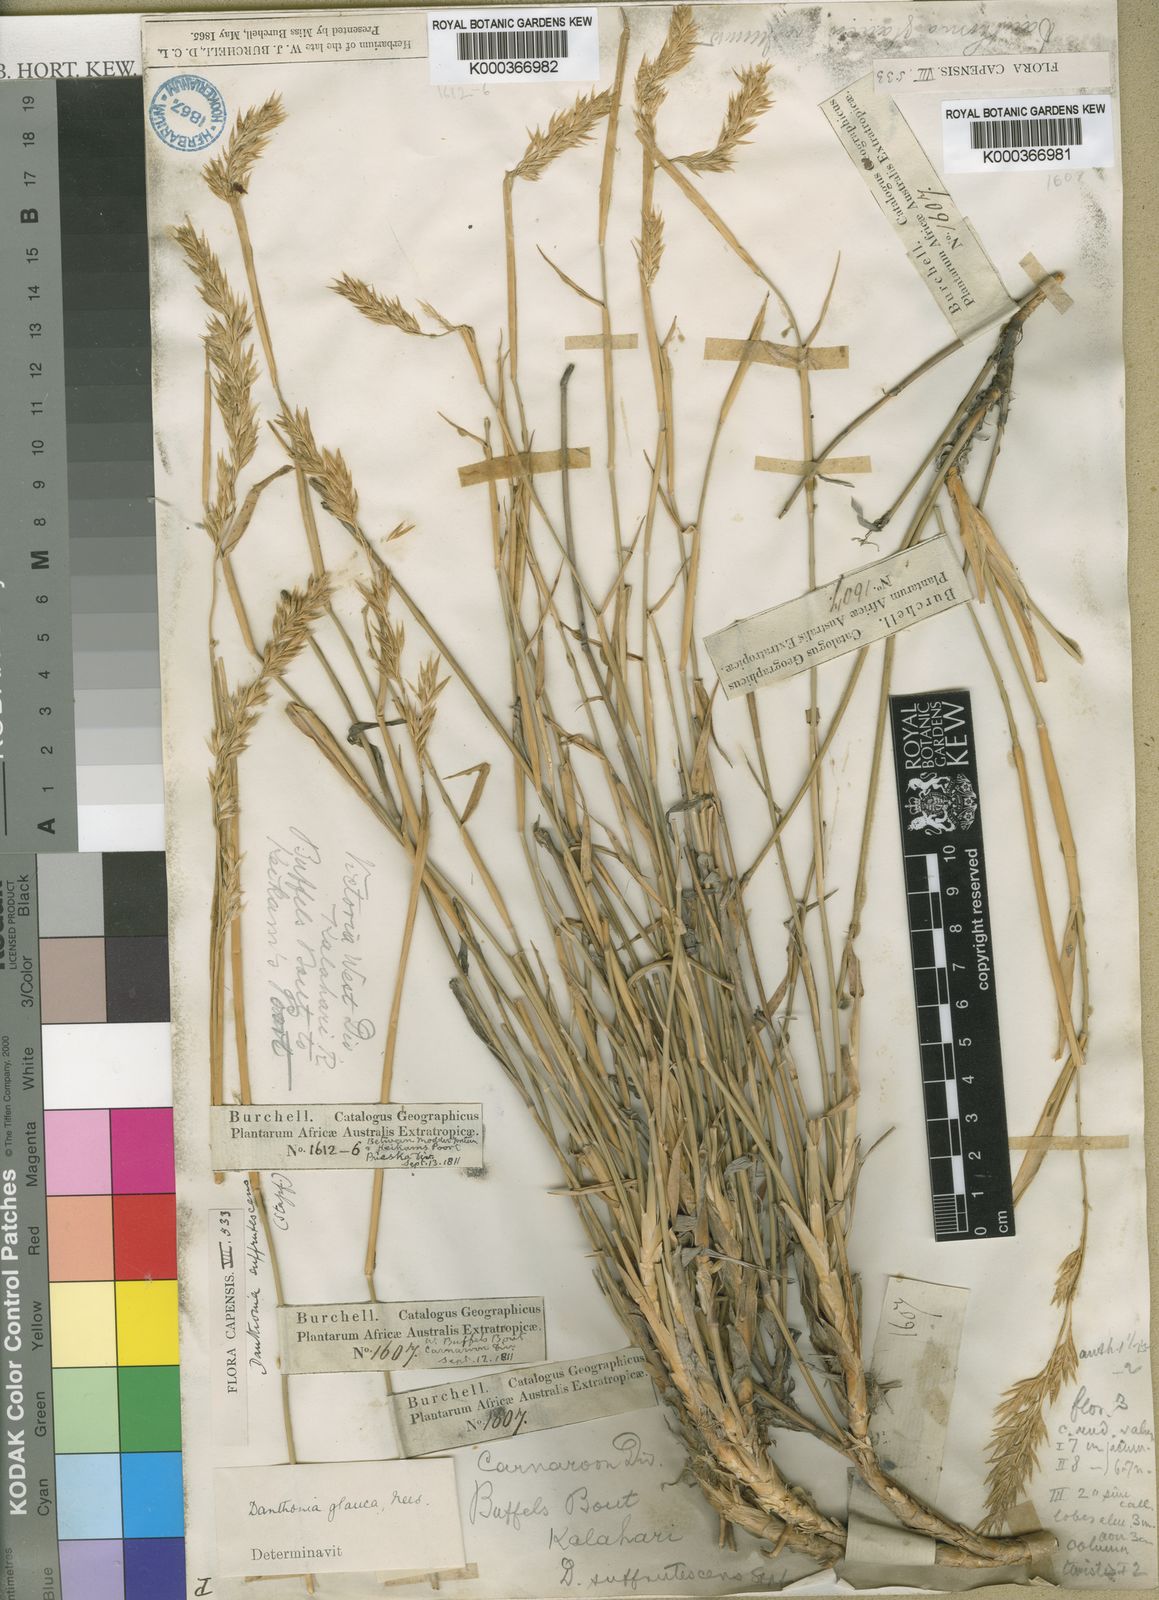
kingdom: Plantae
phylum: Tracheophyta
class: Liliopsida
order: Poales
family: Poaceae
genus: Centropodia
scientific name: Centropodia glauca
